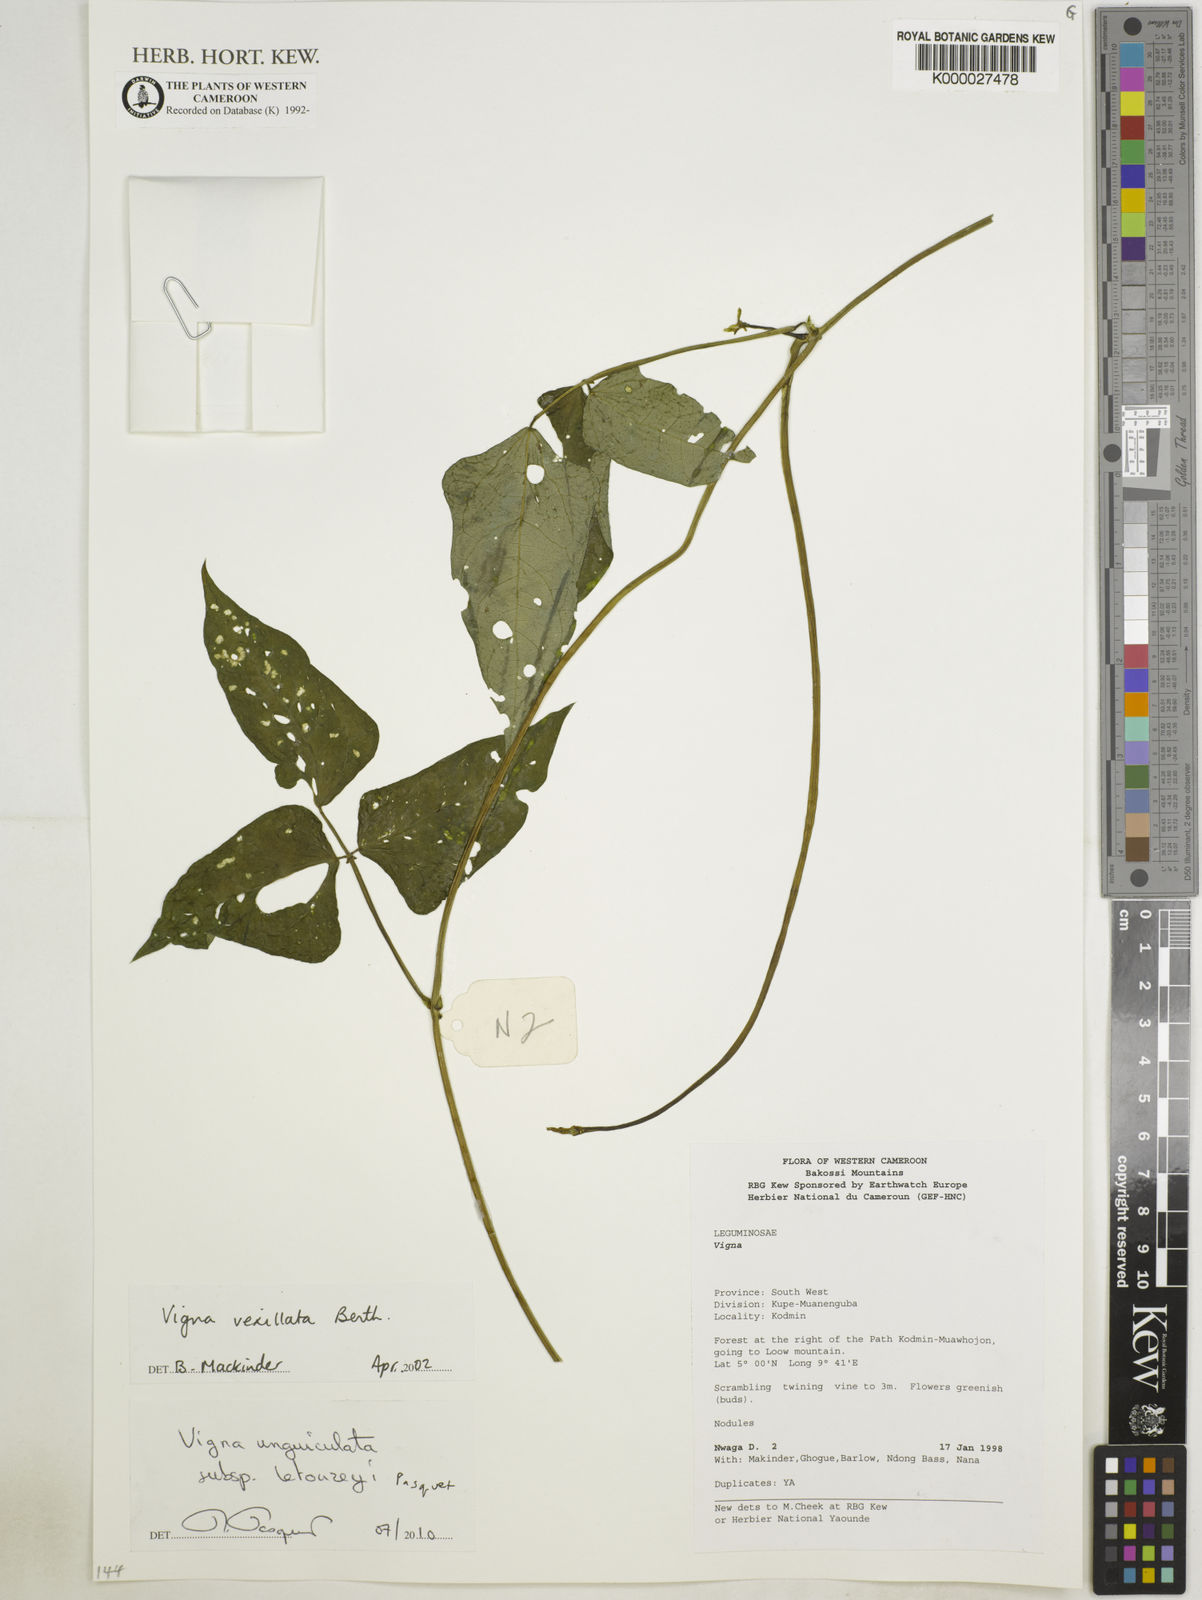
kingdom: Plantae
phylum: Tracheophyta
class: Magnoliopsida
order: Fabales
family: Fabaceae
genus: Vigna
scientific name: Vigna unguiculata
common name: Cowpea
